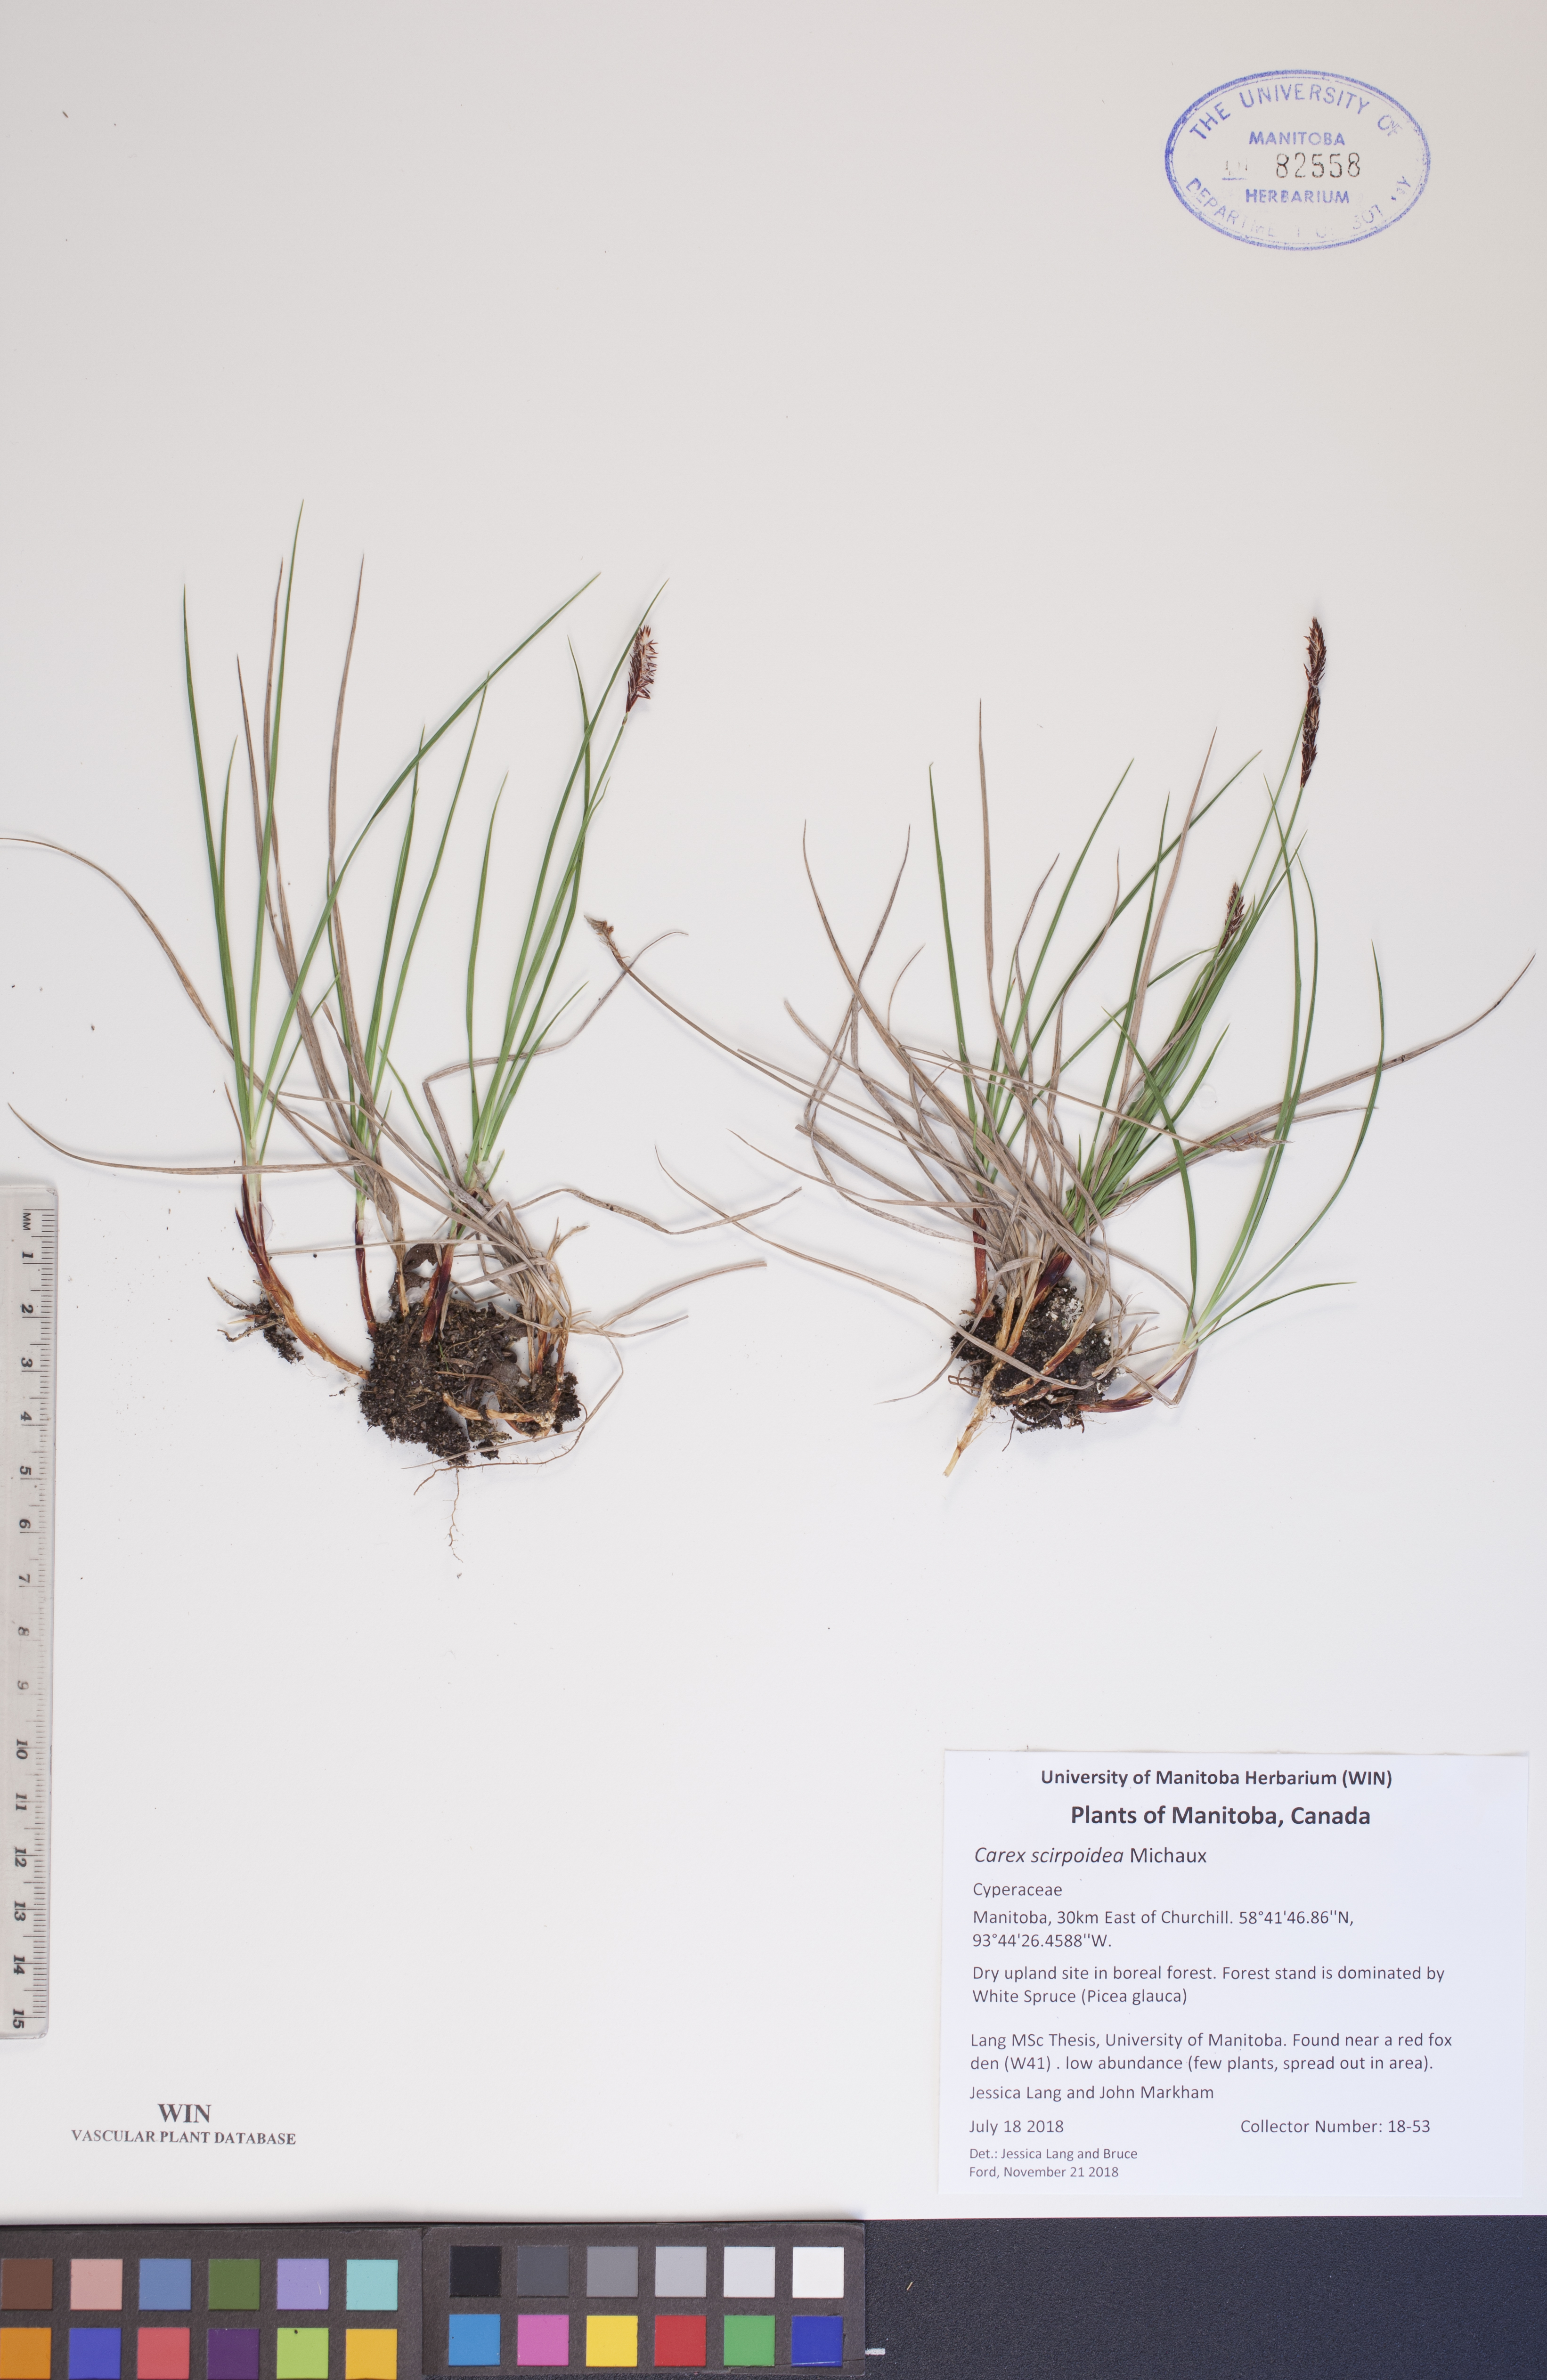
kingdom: Plantae
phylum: Tracheophyta
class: Liliopsida
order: Poales
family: Cyperaceae
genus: Carex
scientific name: Carex scirpoidea
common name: Canada single-spike sedge
